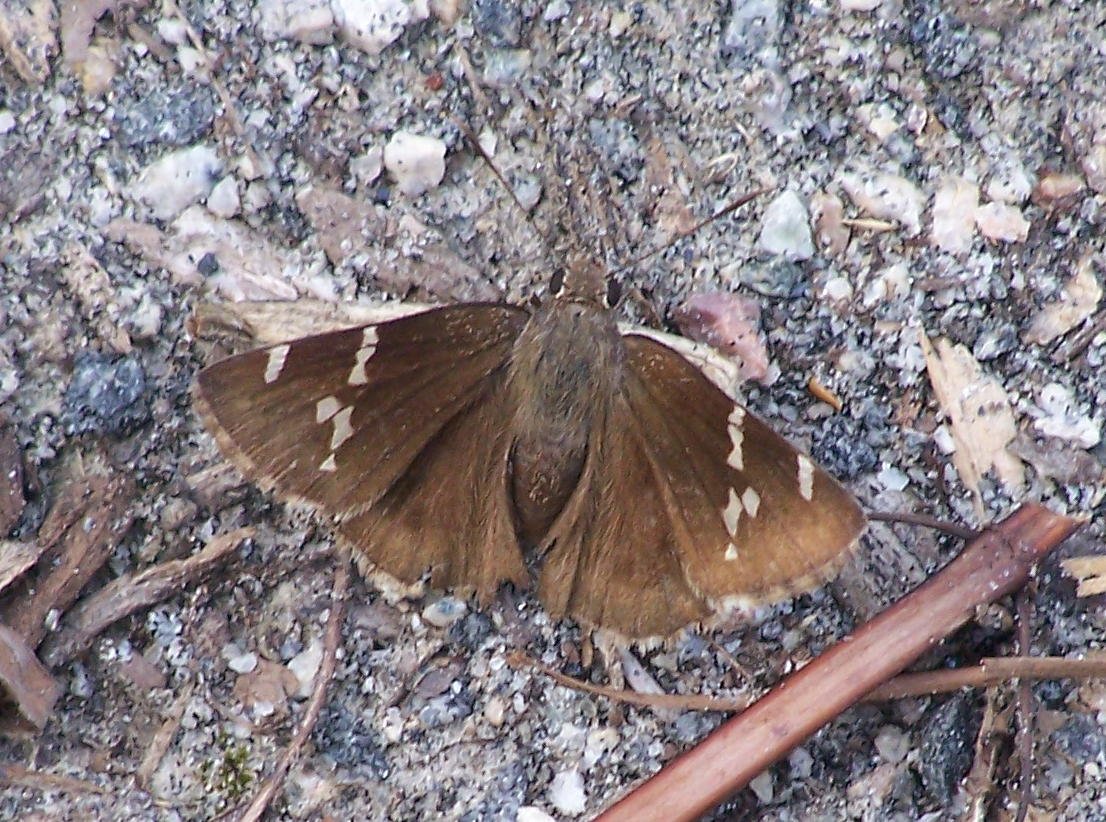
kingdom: Animalia
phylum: Arthropoda
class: Insecta
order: Lepidoptera
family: Hesperiidae
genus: Autochton
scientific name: Autochton
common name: Southern Cloudywing
